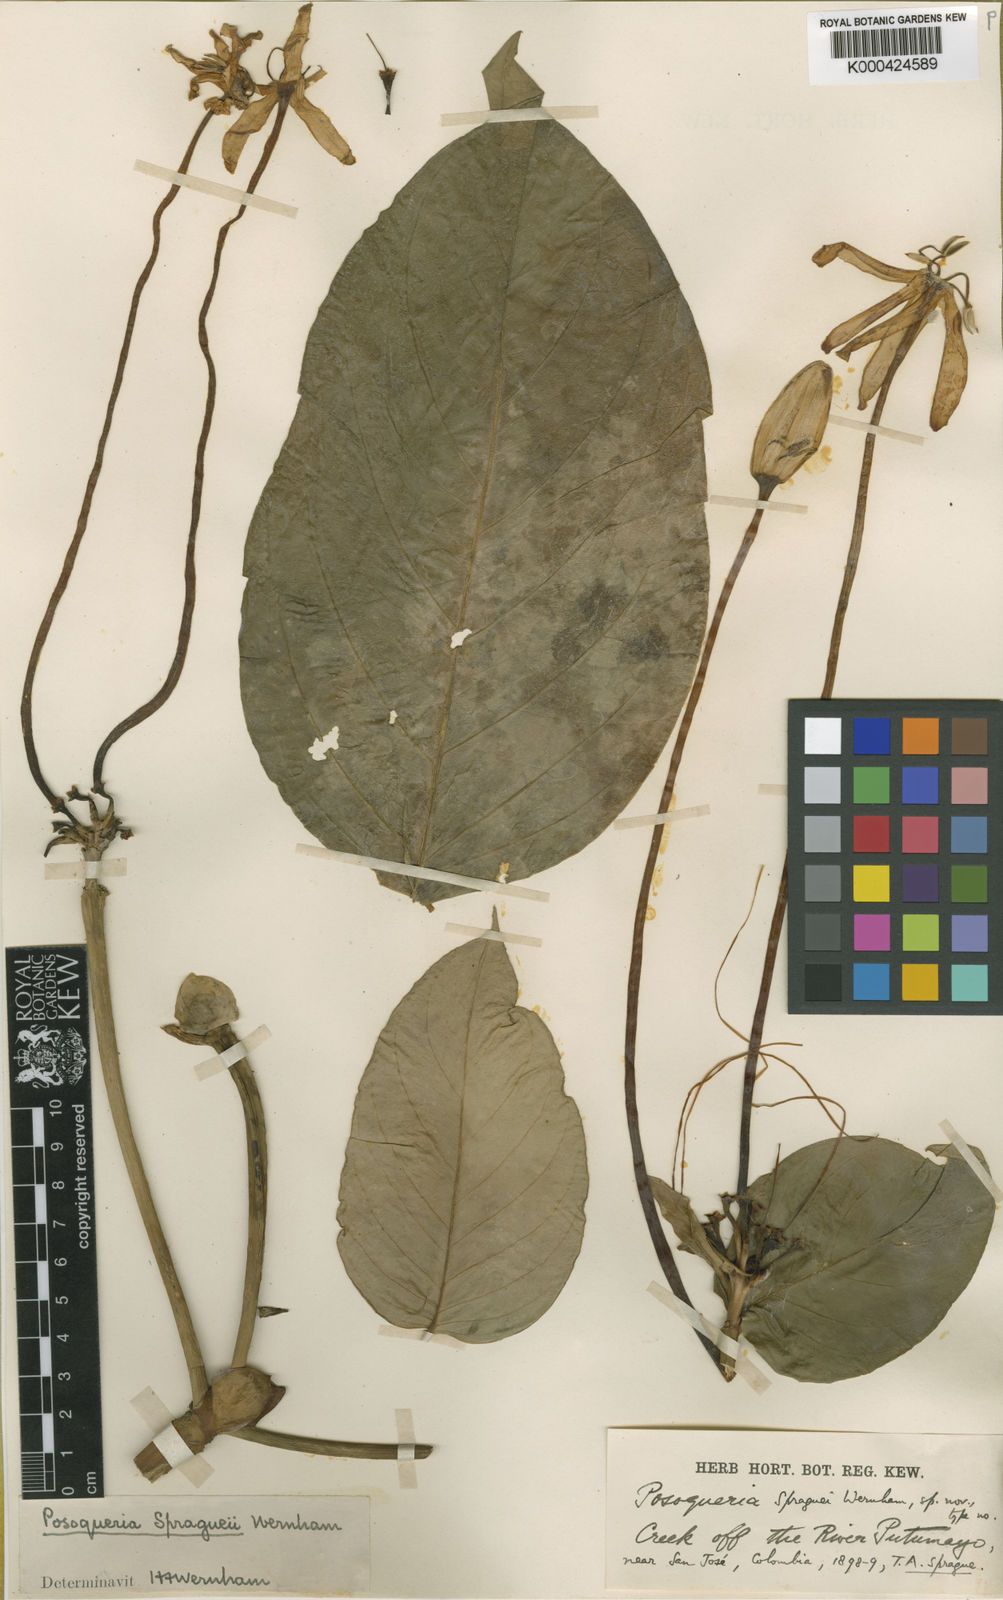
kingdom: Plantae
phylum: Tracheophyta
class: Magnoliopsida
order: Gentianales
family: Rubiaceae
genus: Posoqueria
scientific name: Posoqueria latifolia
